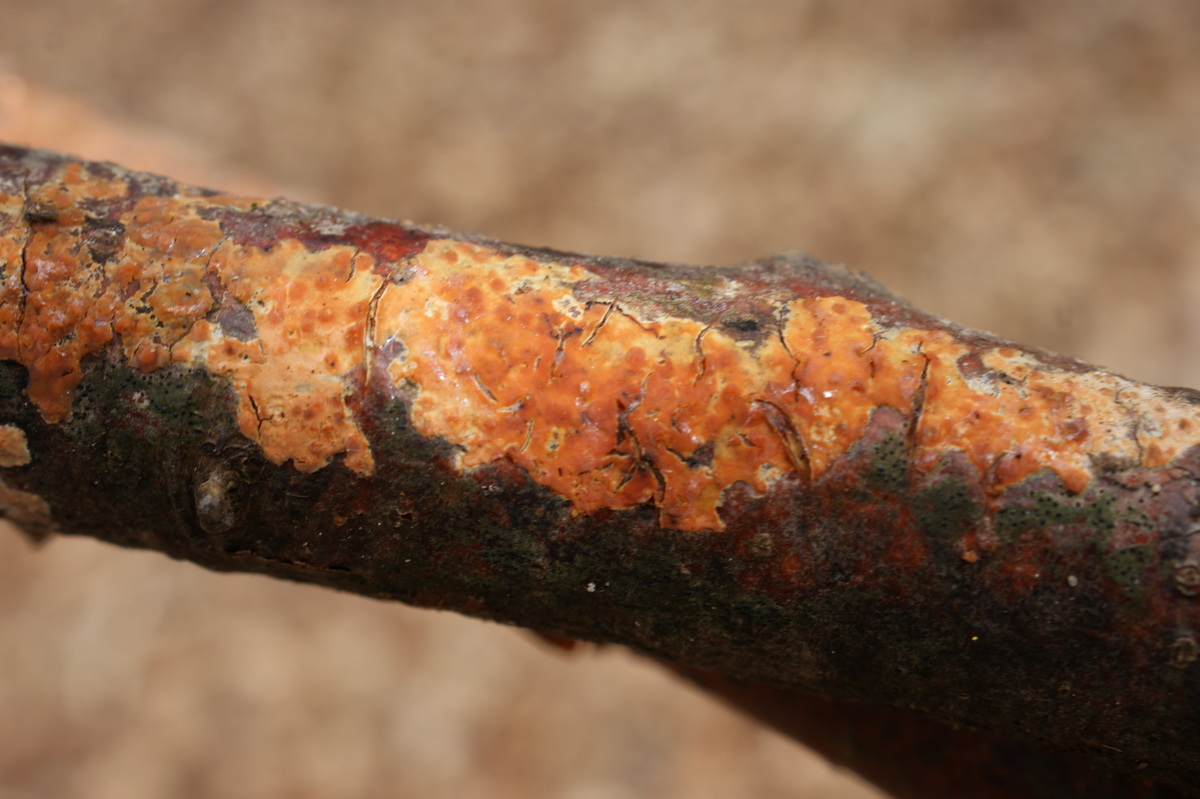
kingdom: Fungi
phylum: Basidiomycota
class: Agaricomycetes
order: Russulales
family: Peniophoraceae
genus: Peniophora
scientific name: Peniophora incarnata
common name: laksefarvet voksskind
